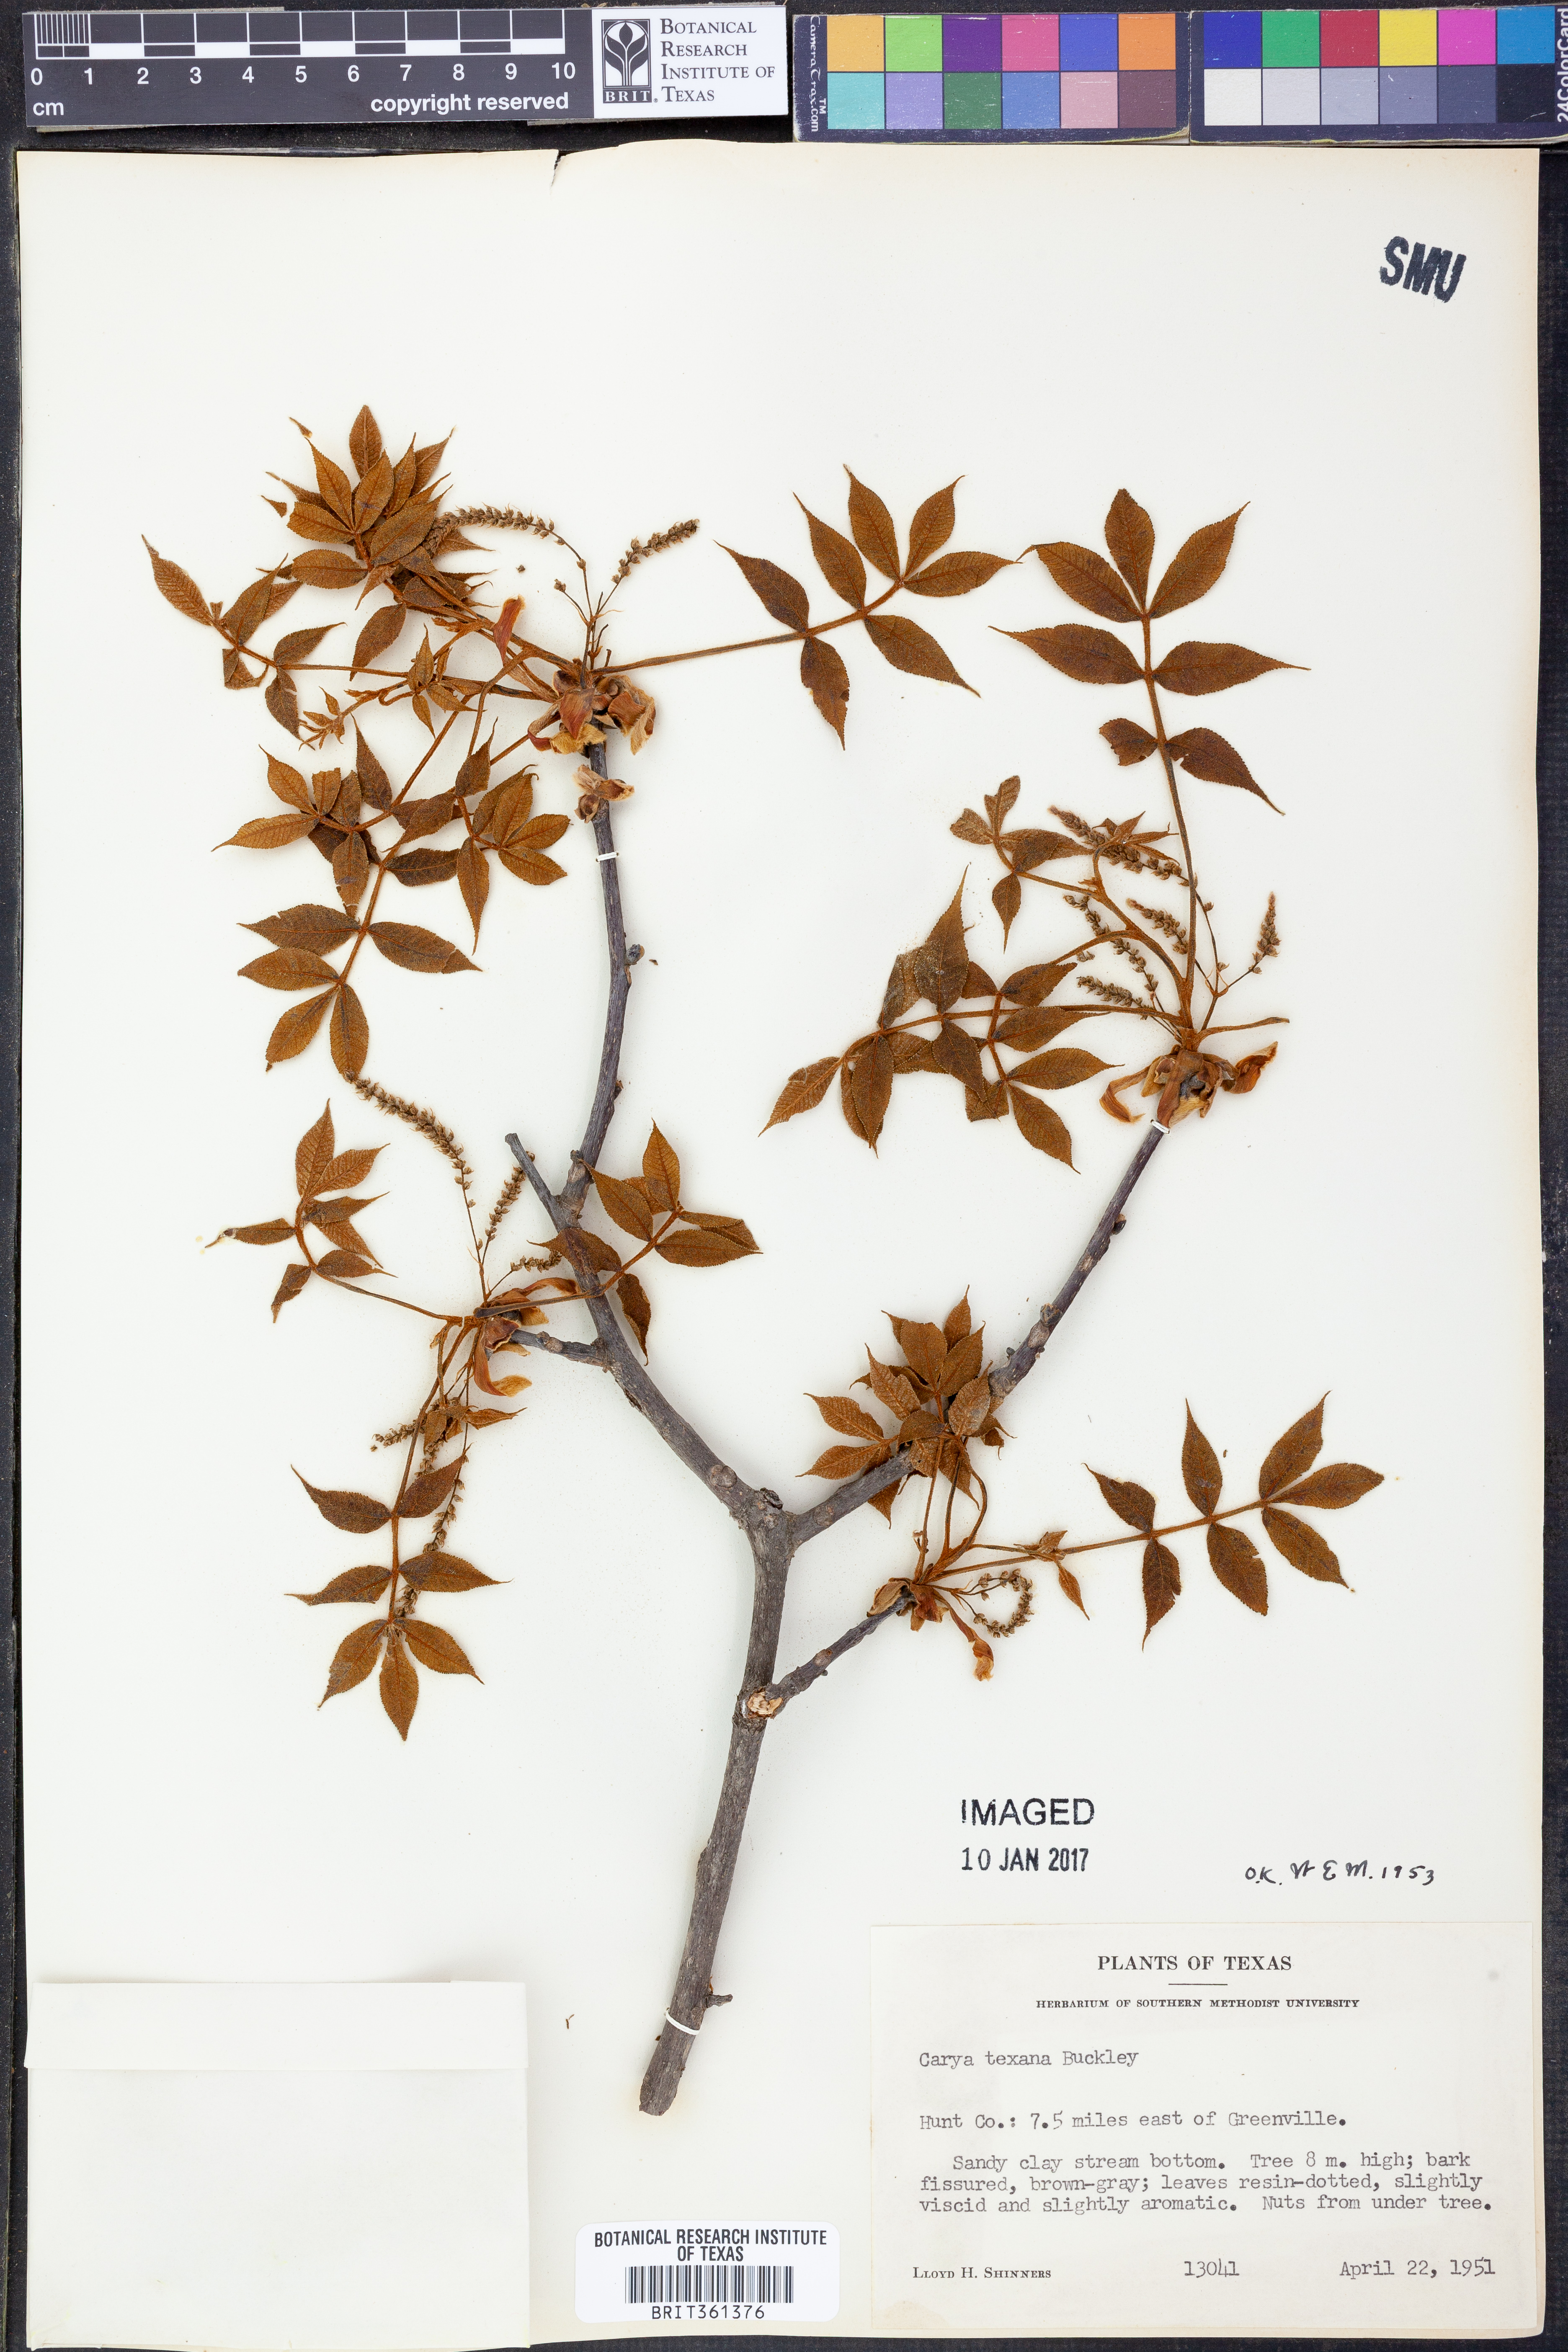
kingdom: Plantae
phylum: Tracheophyta
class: Magnoliopsida
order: Fagales
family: Juglandaceae
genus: Carya
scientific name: Carya texana
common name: Black hickory
